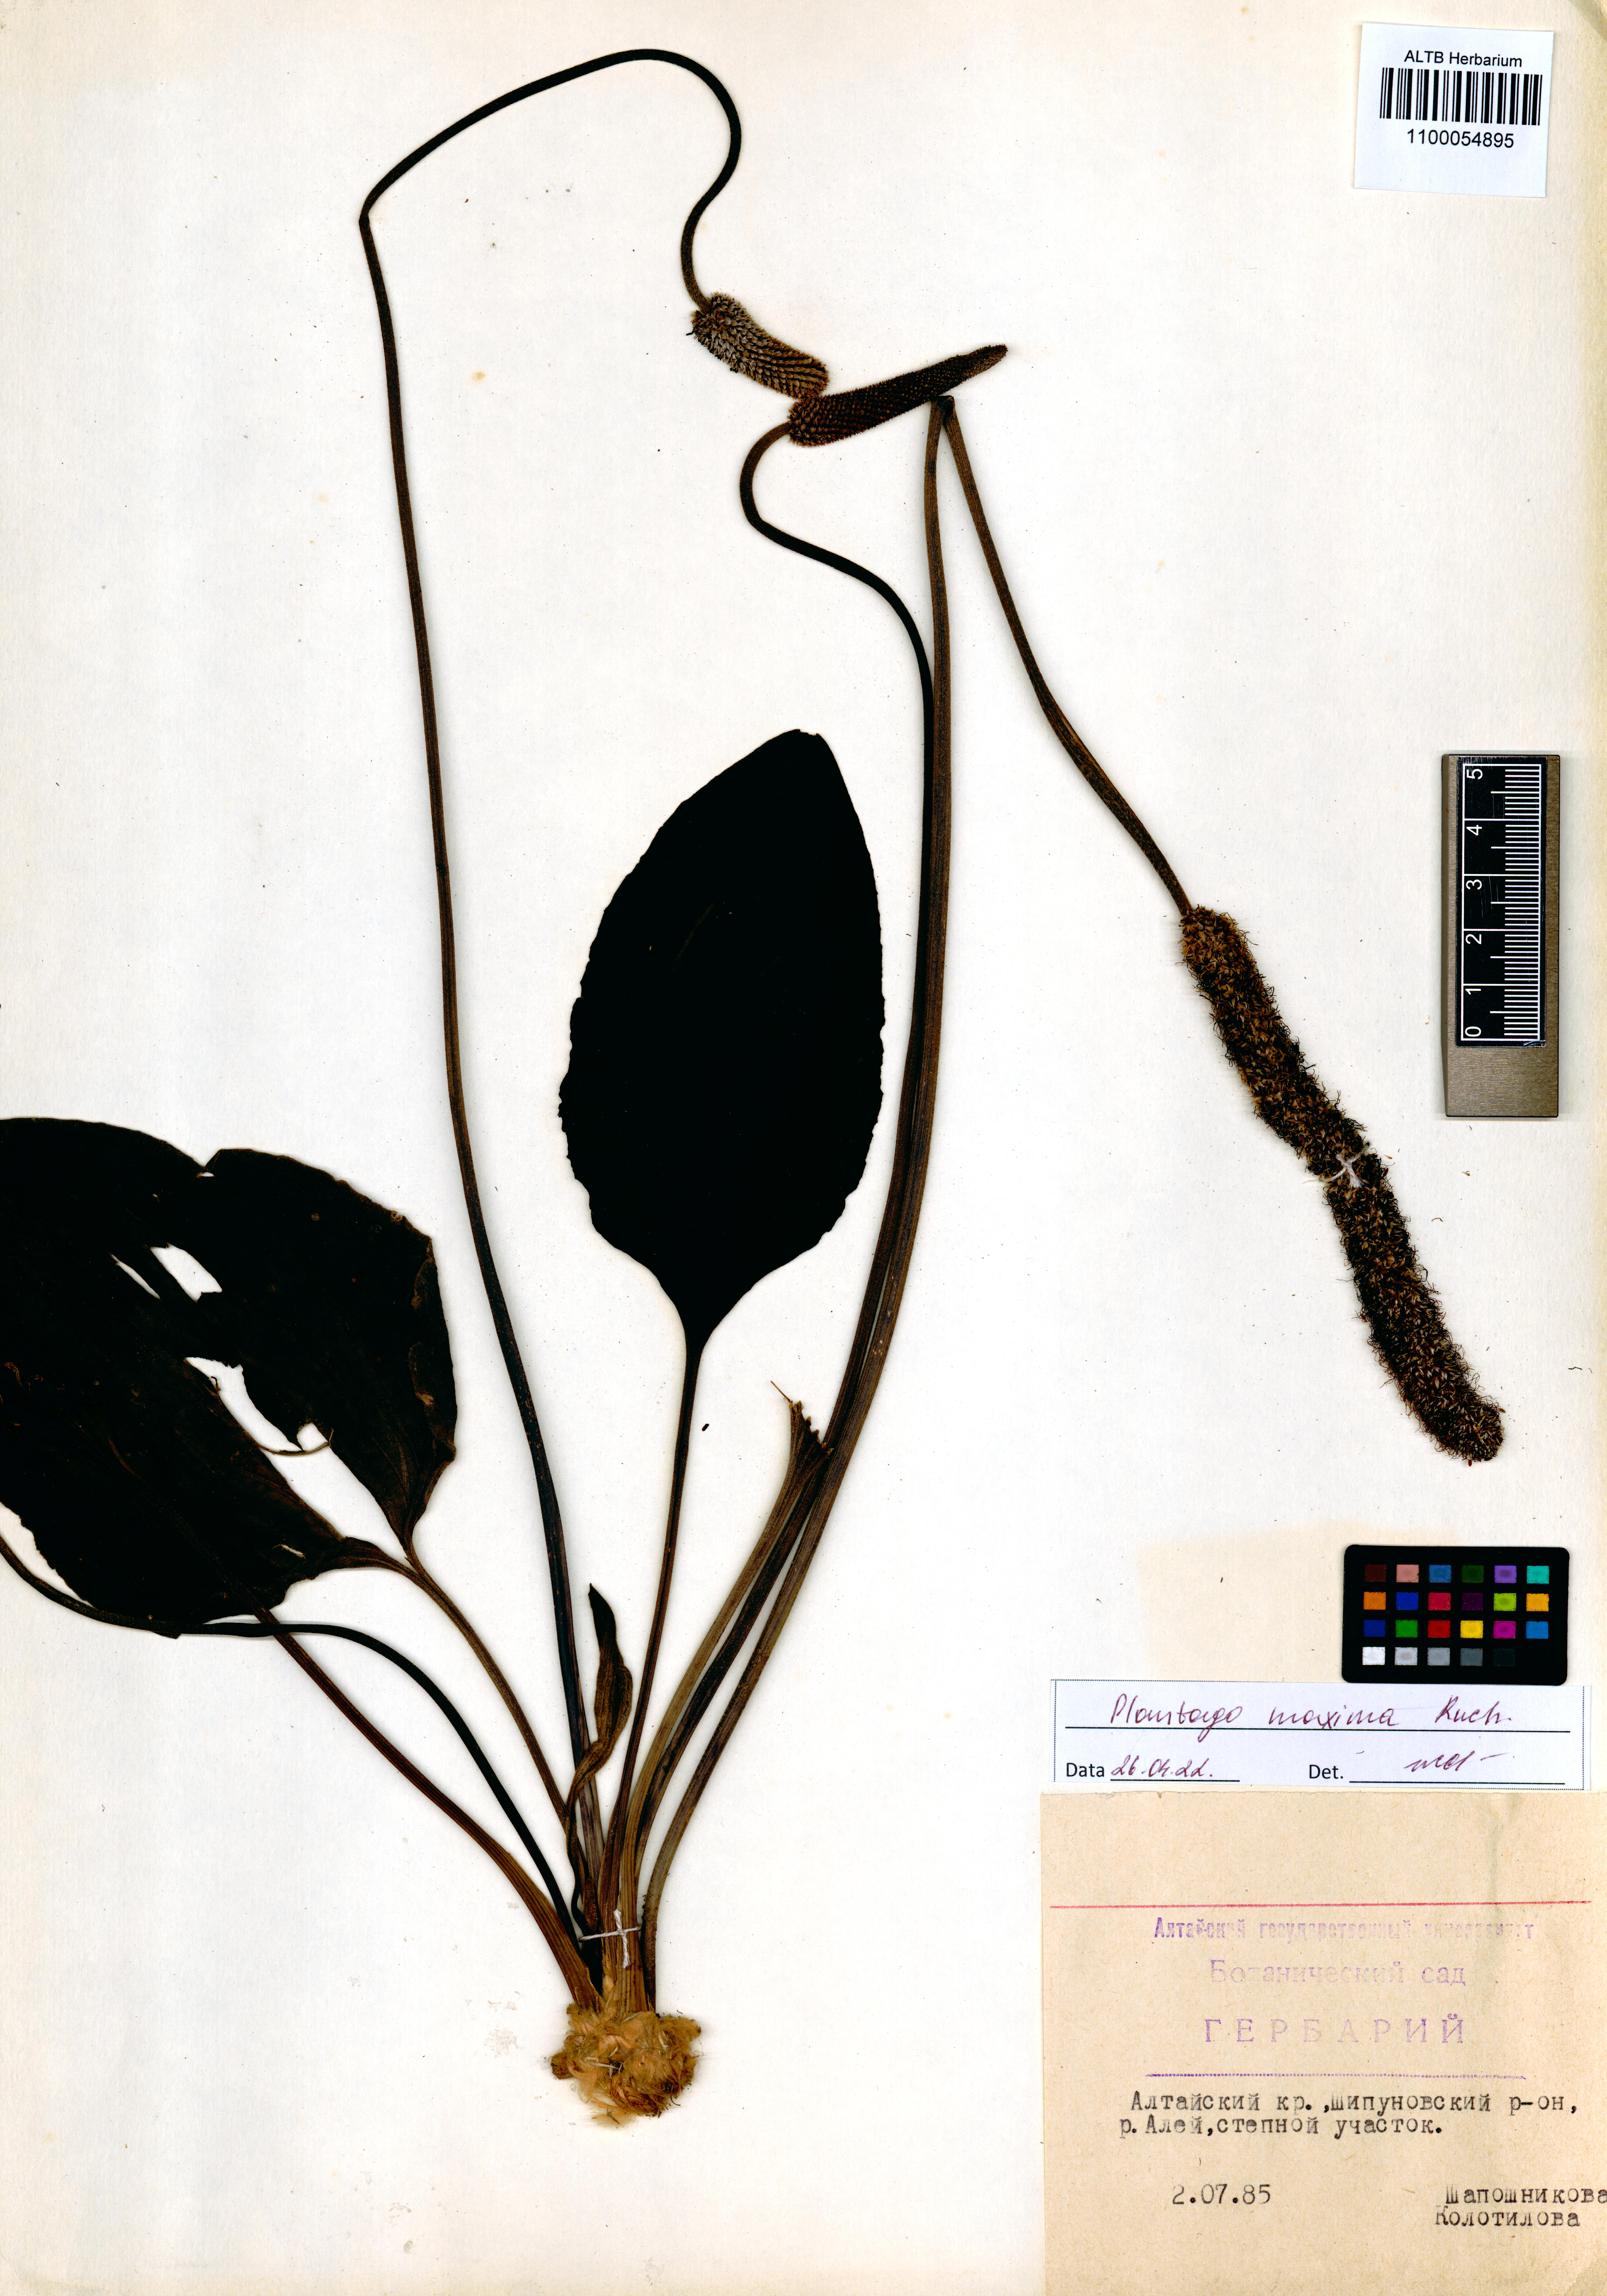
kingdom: Plantae
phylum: Tracheophyta
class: Magnoliopsida
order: Lamiales
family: Plantaginaceae
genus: Plantago
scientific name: Plantago maxima
